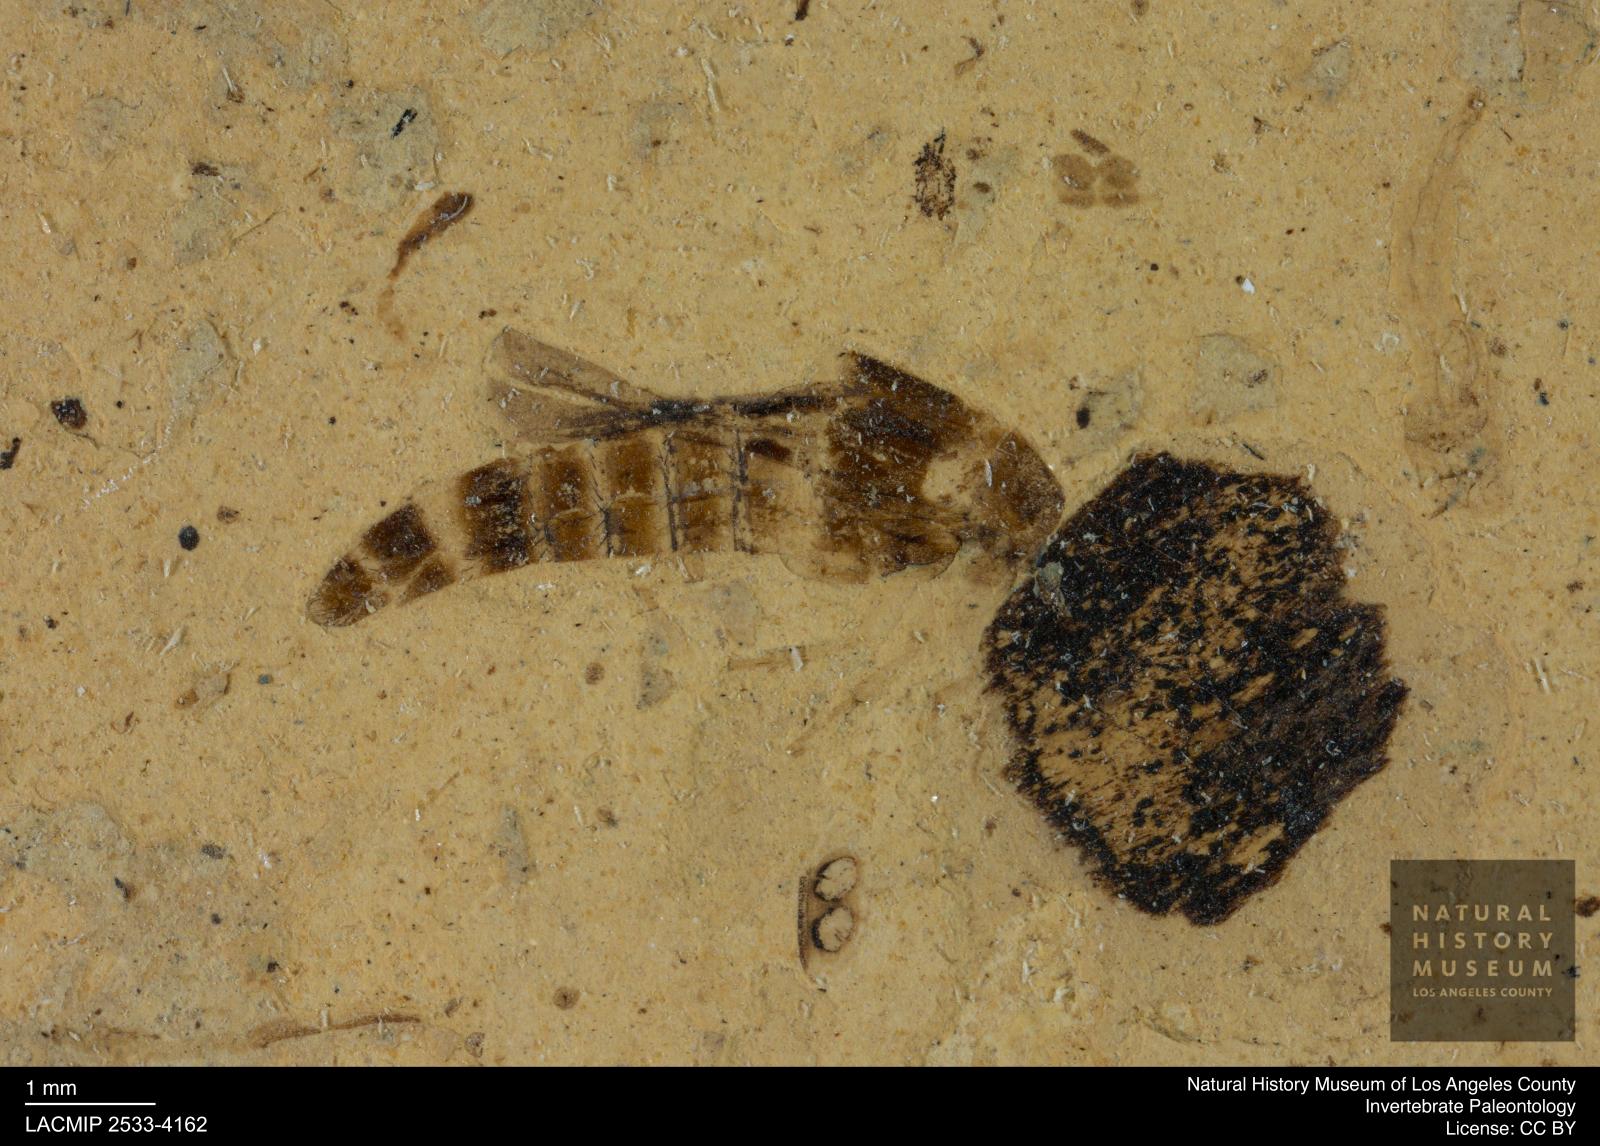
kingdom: Animalia
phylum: Arthropoda
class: Insecta
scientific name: Insecta
